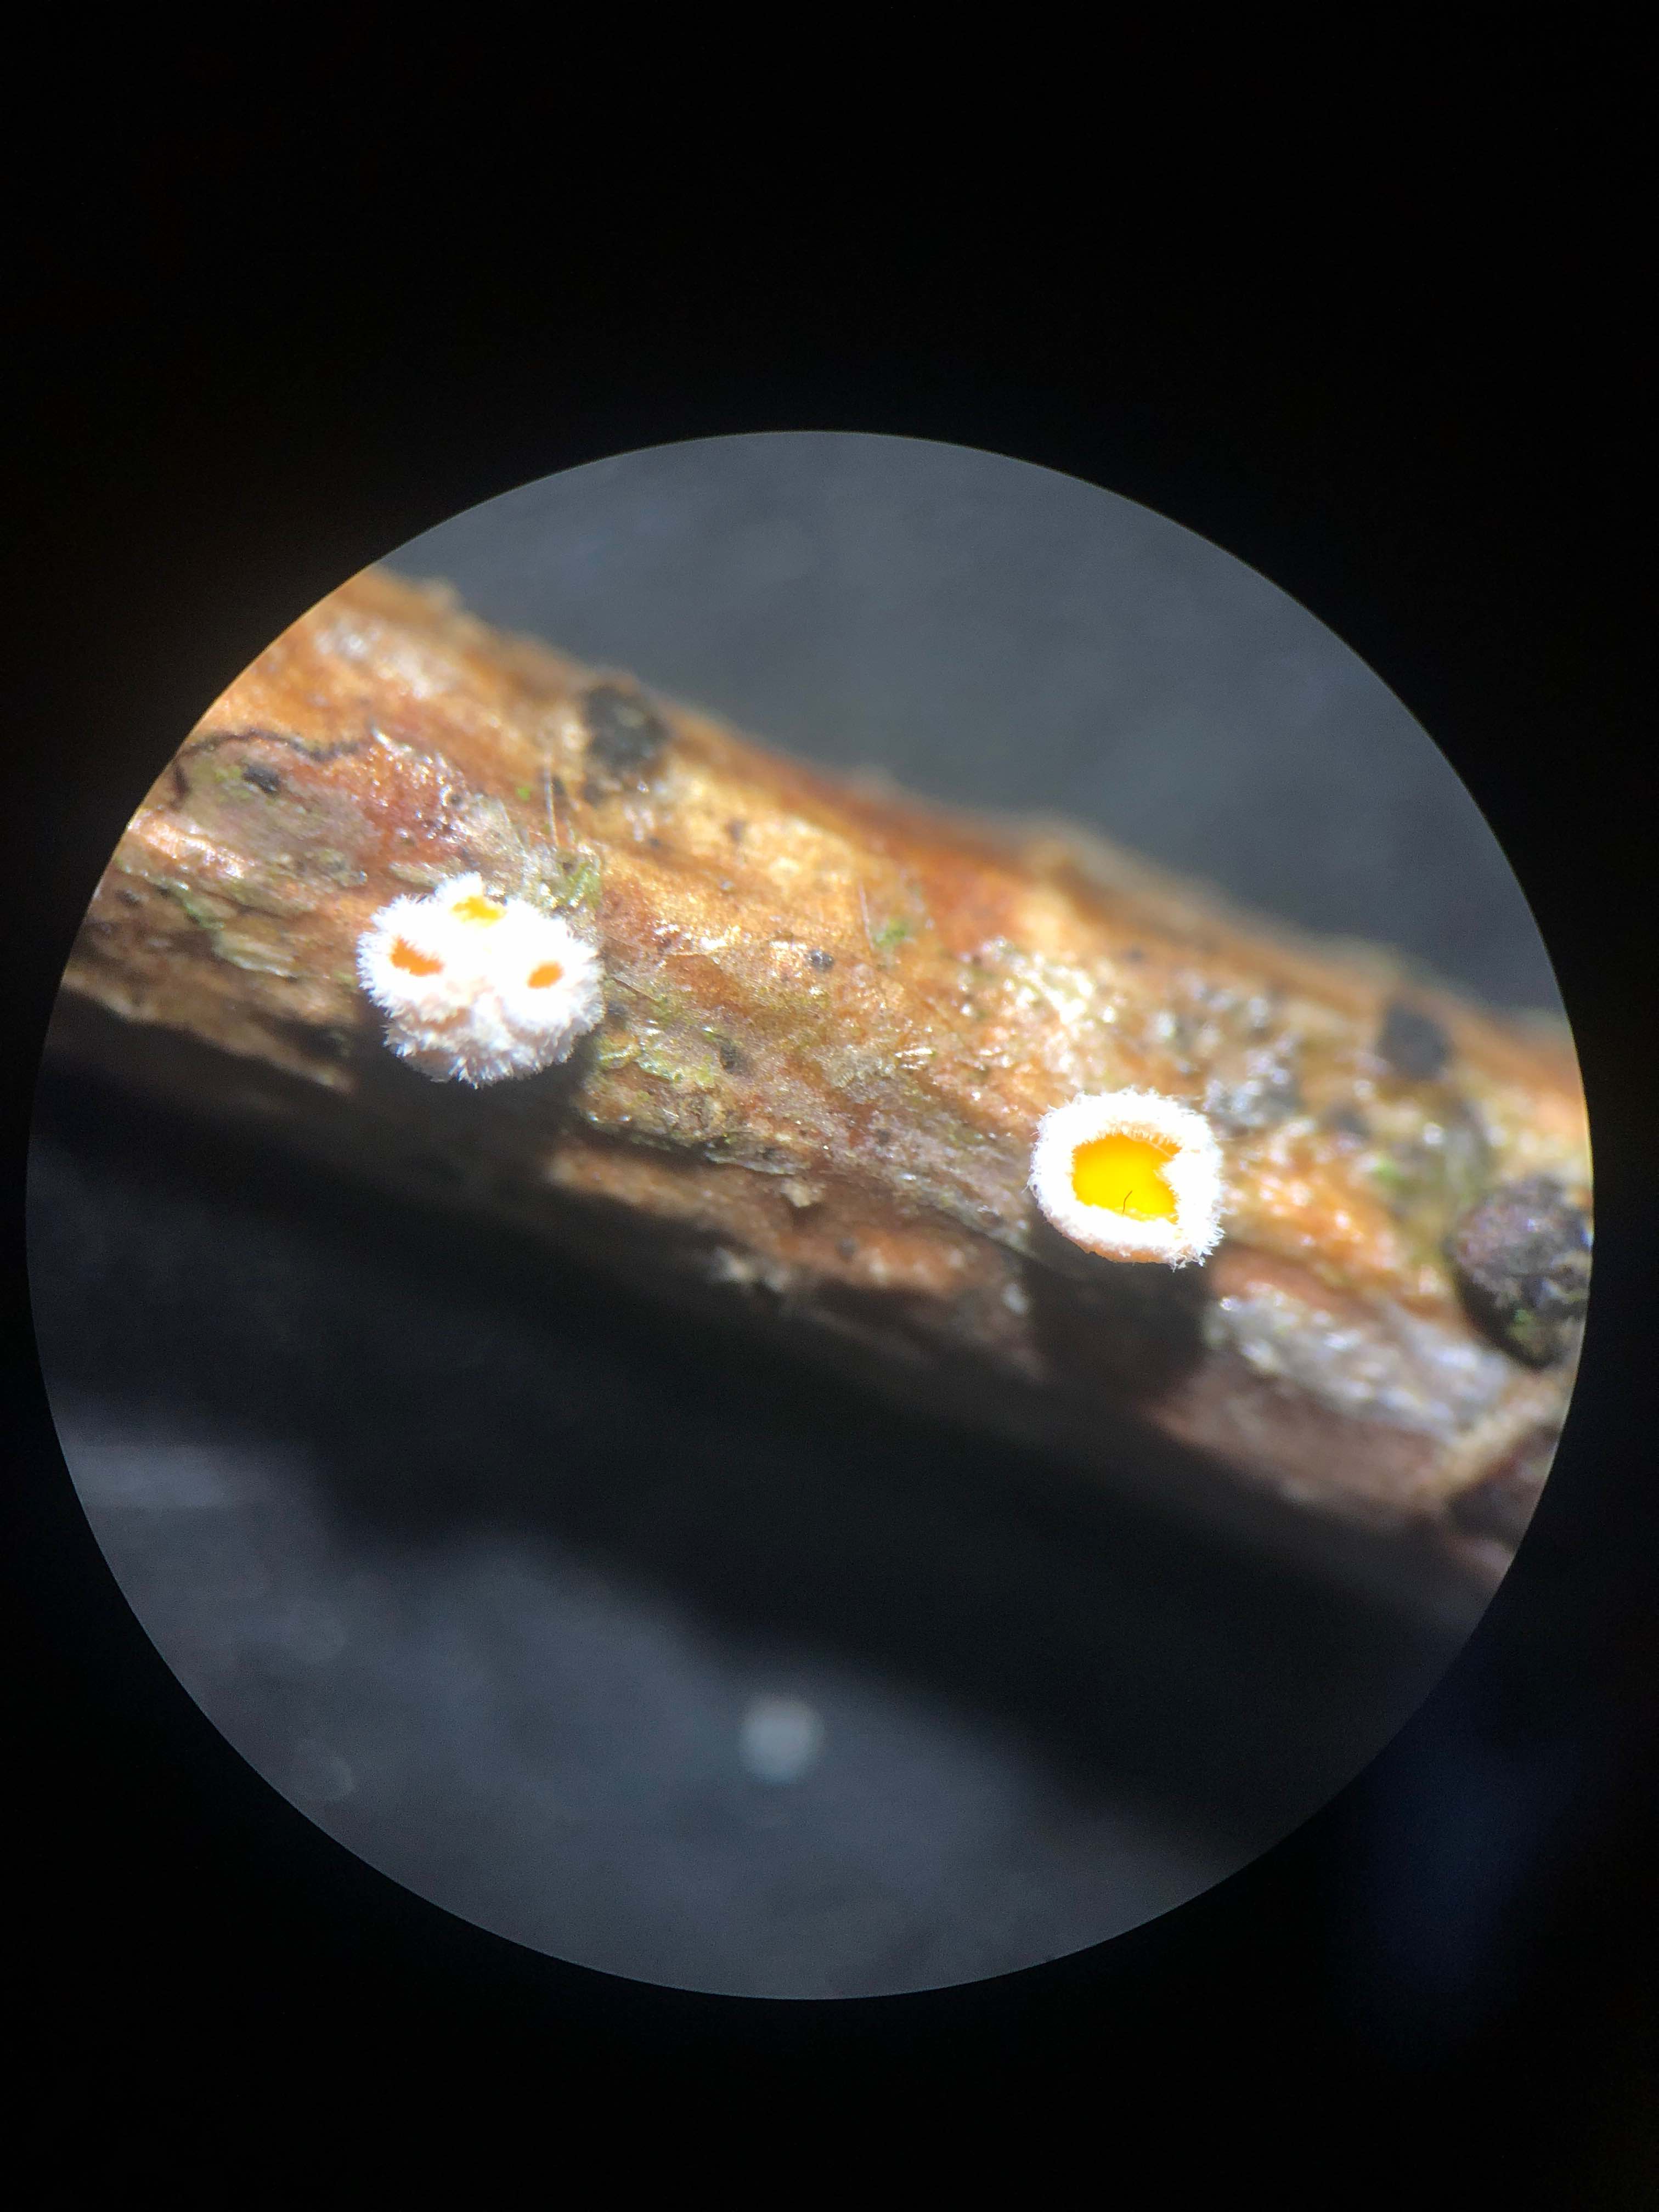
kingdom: Fungi
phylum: Ascomycota
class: Leotiomycetes
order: Helotiales
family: Lachnaceae
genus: Capitotricha
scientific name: Capitotricha bicolor
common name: prægtig frynseskive
